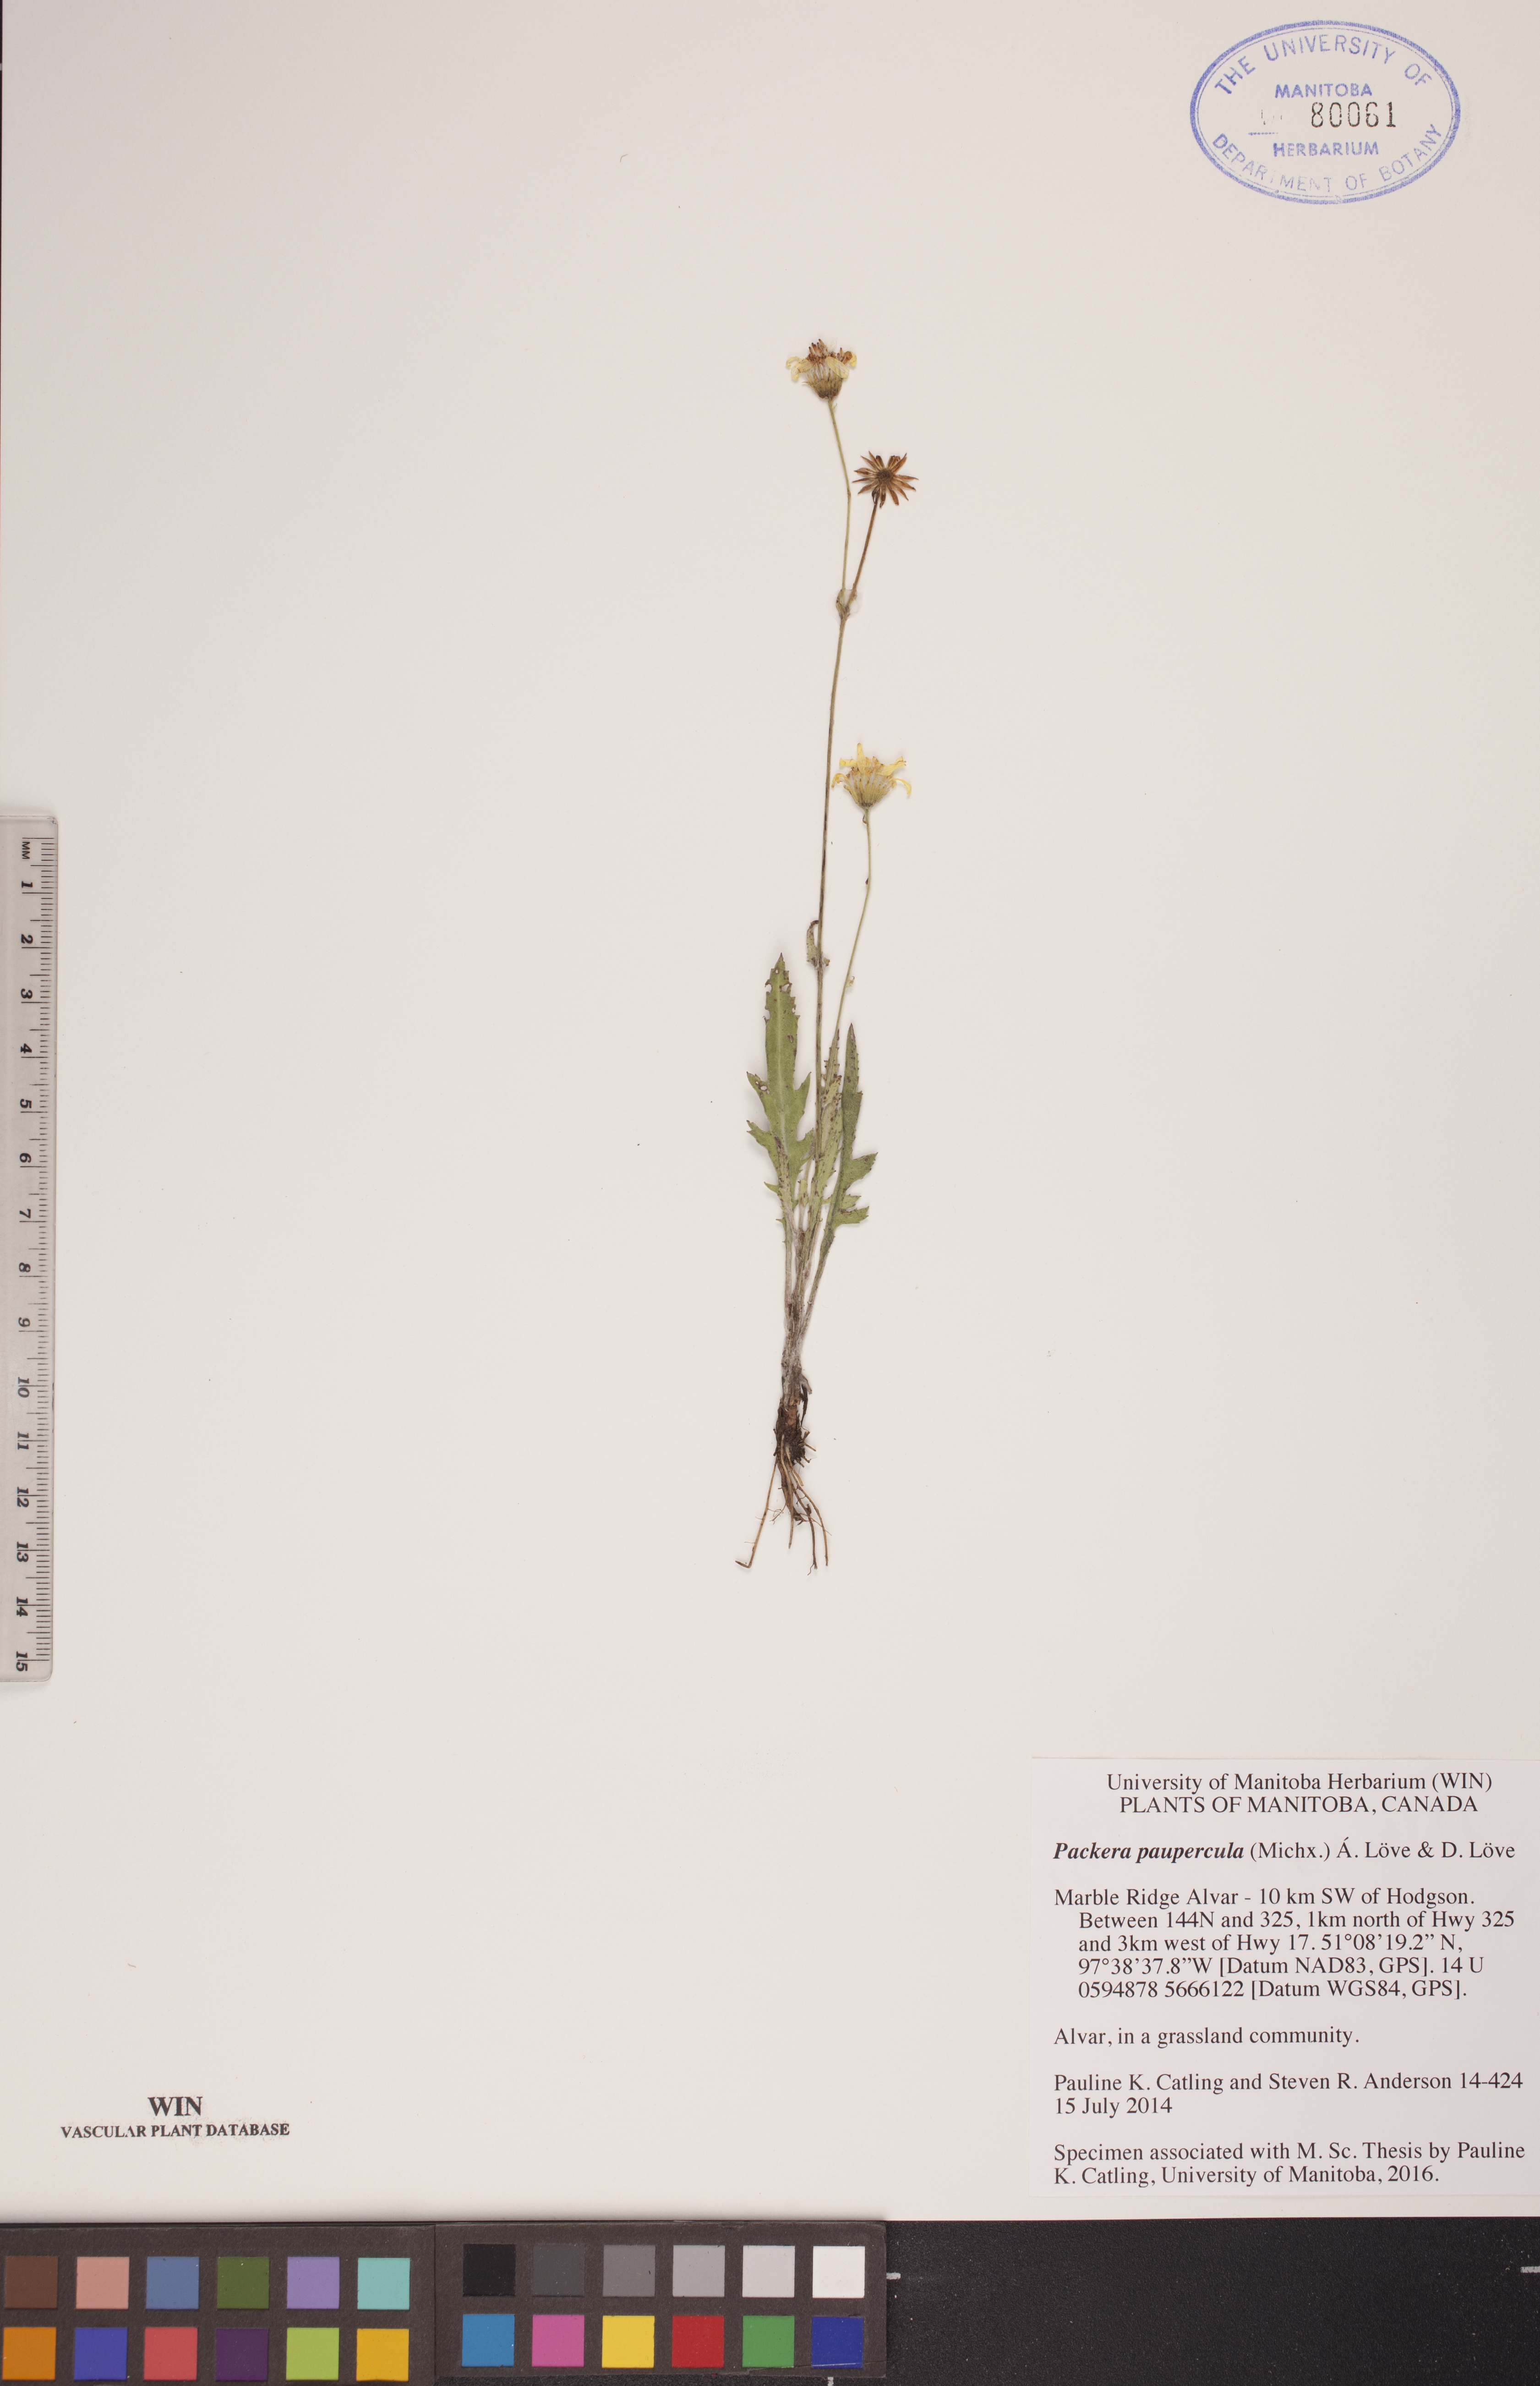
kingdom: Plantae
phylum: Tracheophyta
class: Magnoliopsida
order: Asterales
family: Asteraceae
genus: Packera
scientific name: Packera paupercula
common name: Balsam groundsel
